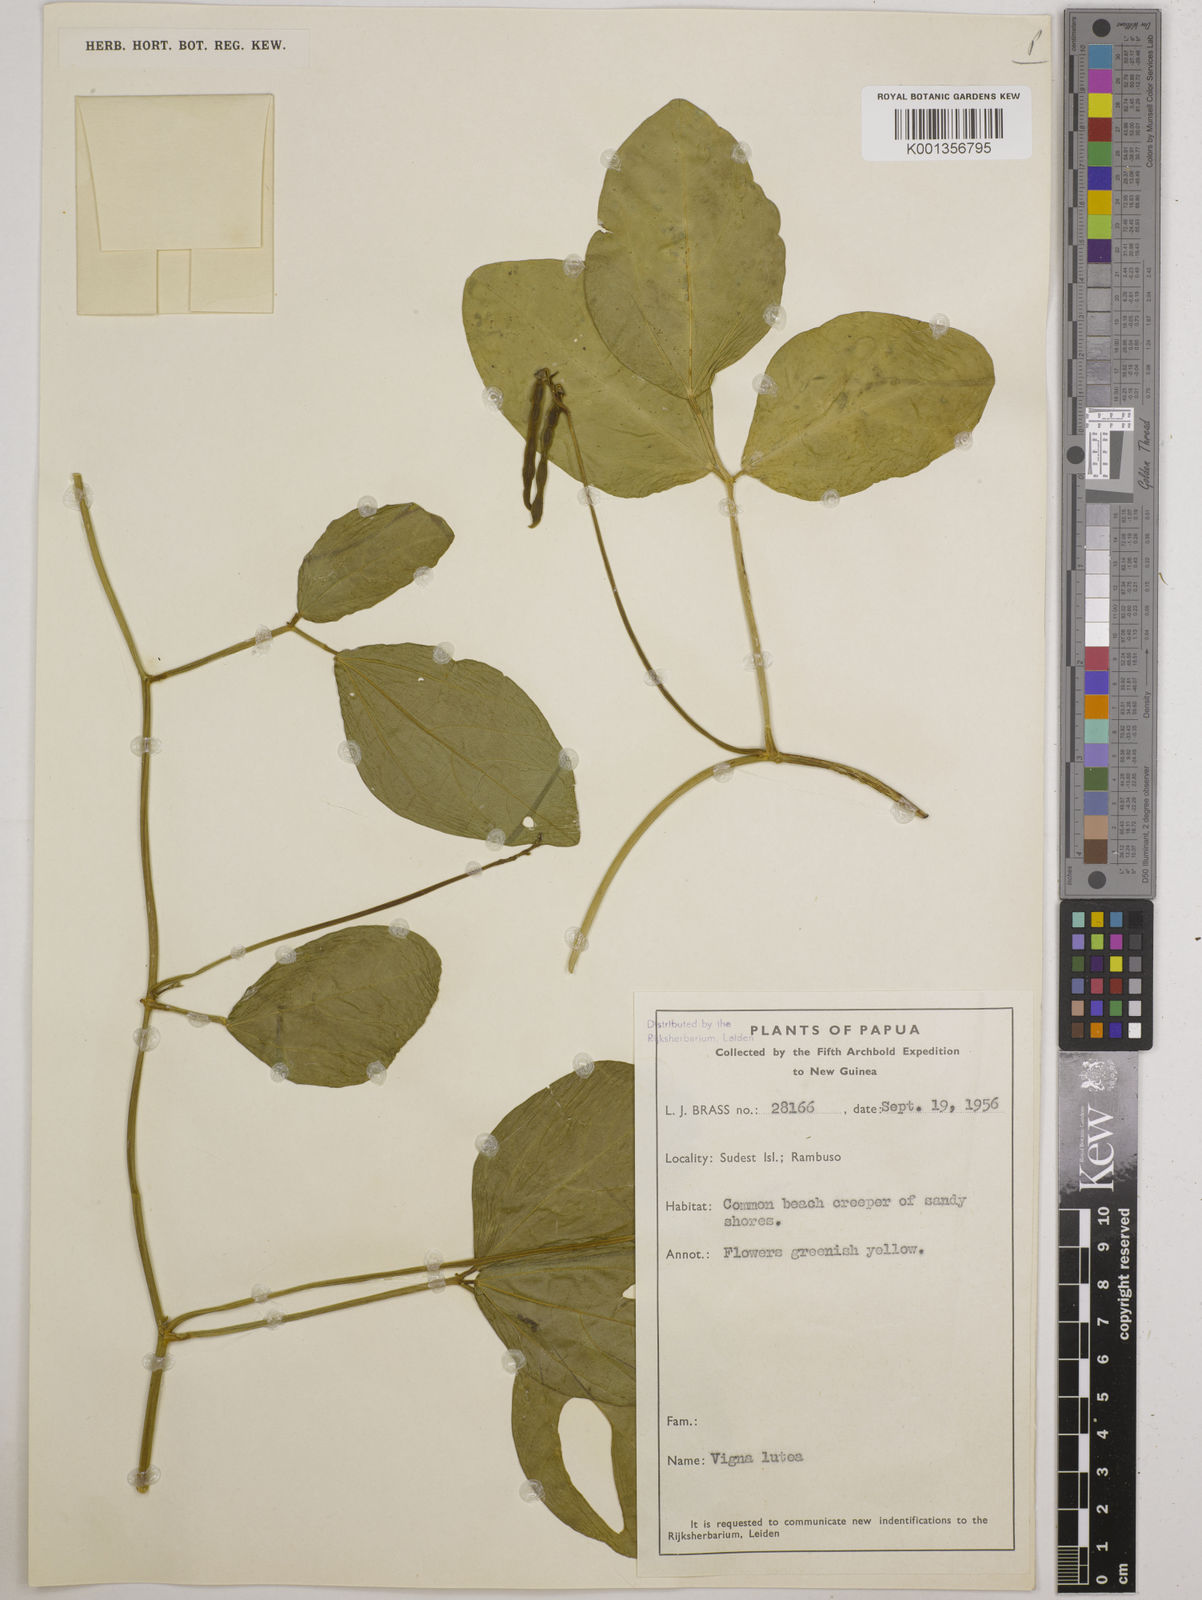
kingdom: Plantae
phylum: Tracheophyta
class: Magnoliopsida
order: Fabales
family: Fabaceae
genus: Vigna
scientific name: Vigna marina
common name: Dune-bean
